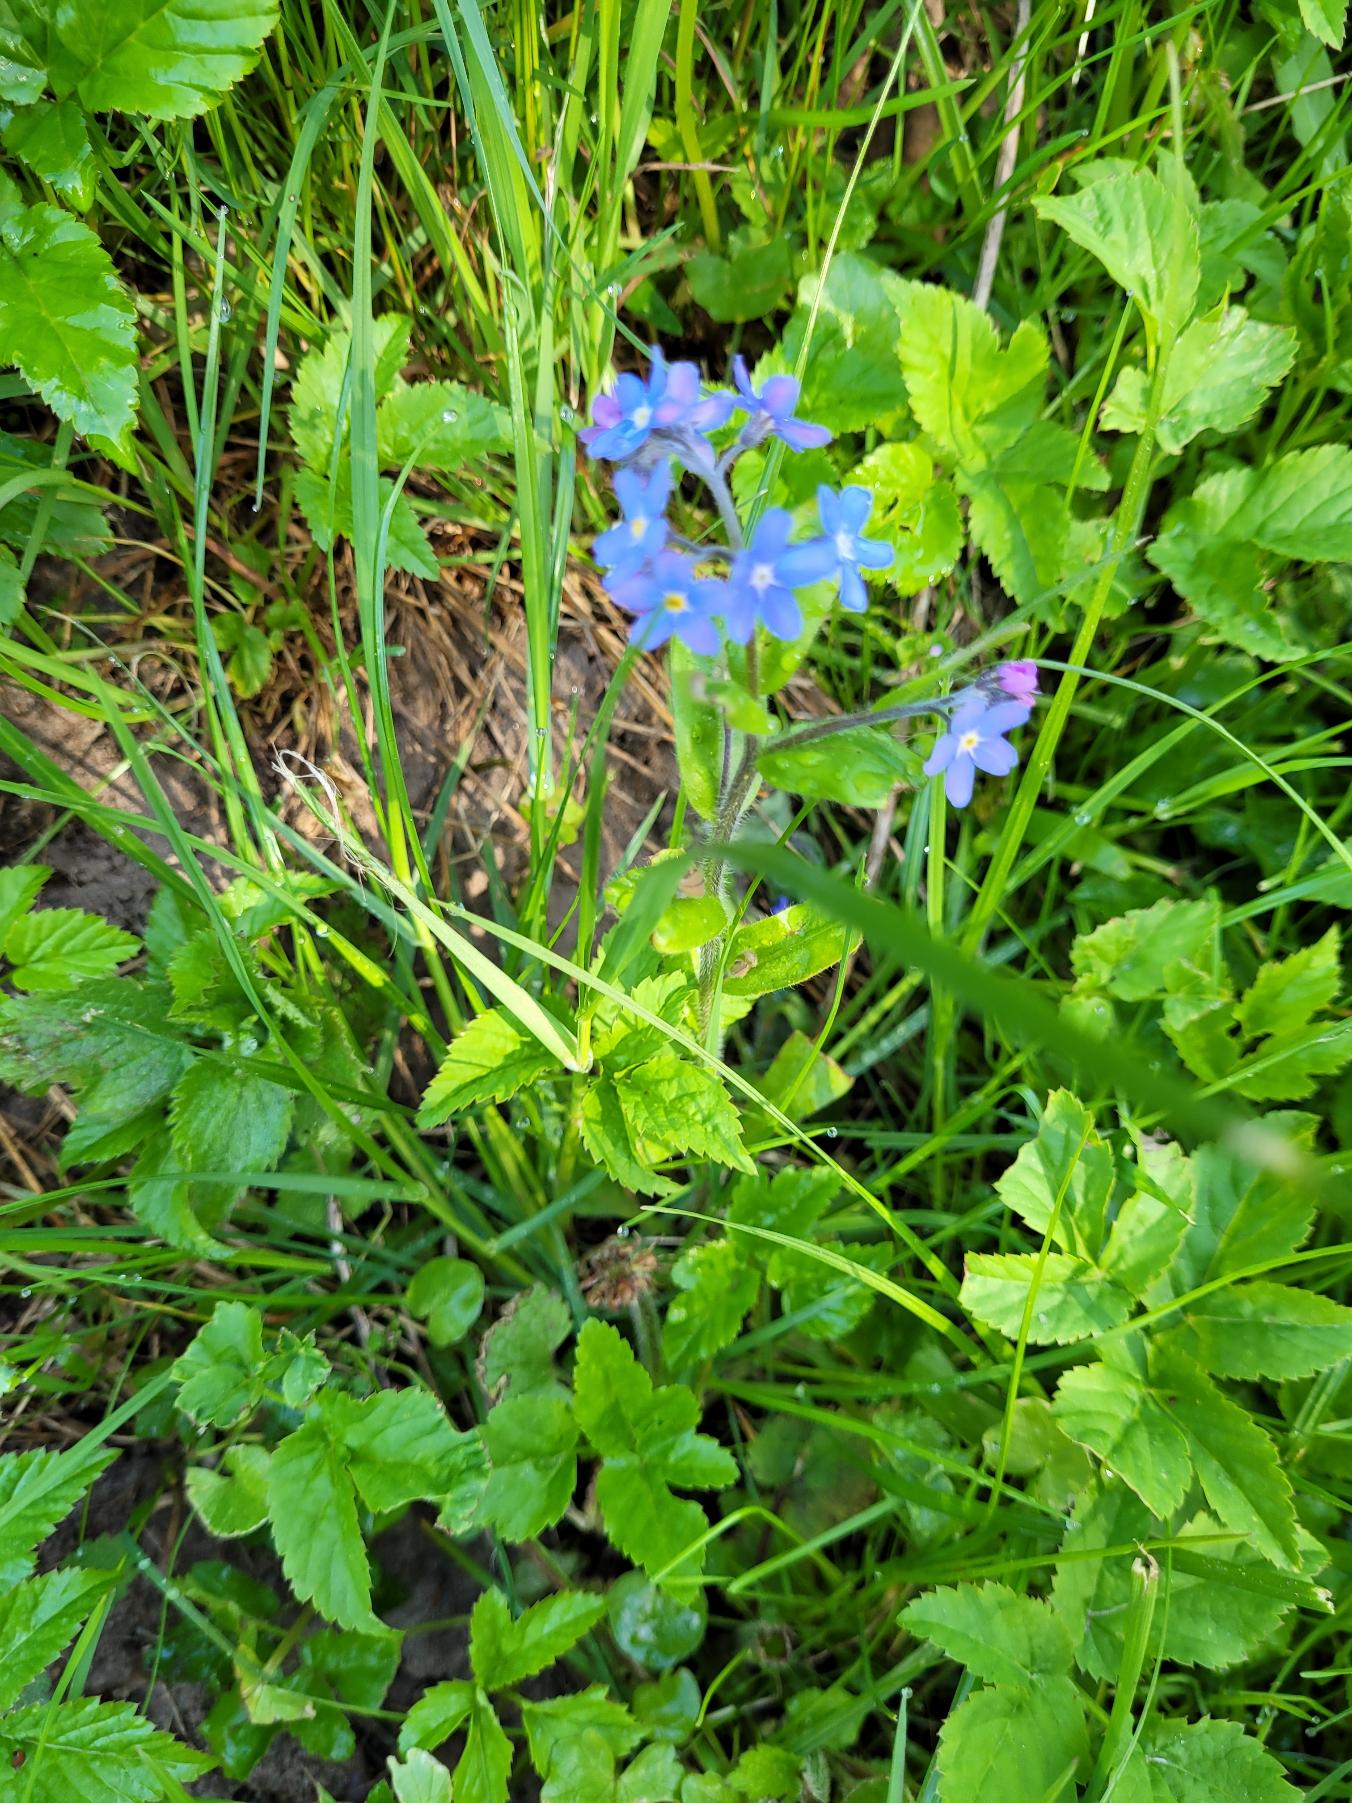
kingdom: Plantae
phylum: Tracheophyta
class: Magnoliopsida
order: Boraginales
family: Boraginaceae
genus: Myosotis
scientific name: Myosotis sylvatica
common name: Skov-forglemmigej
